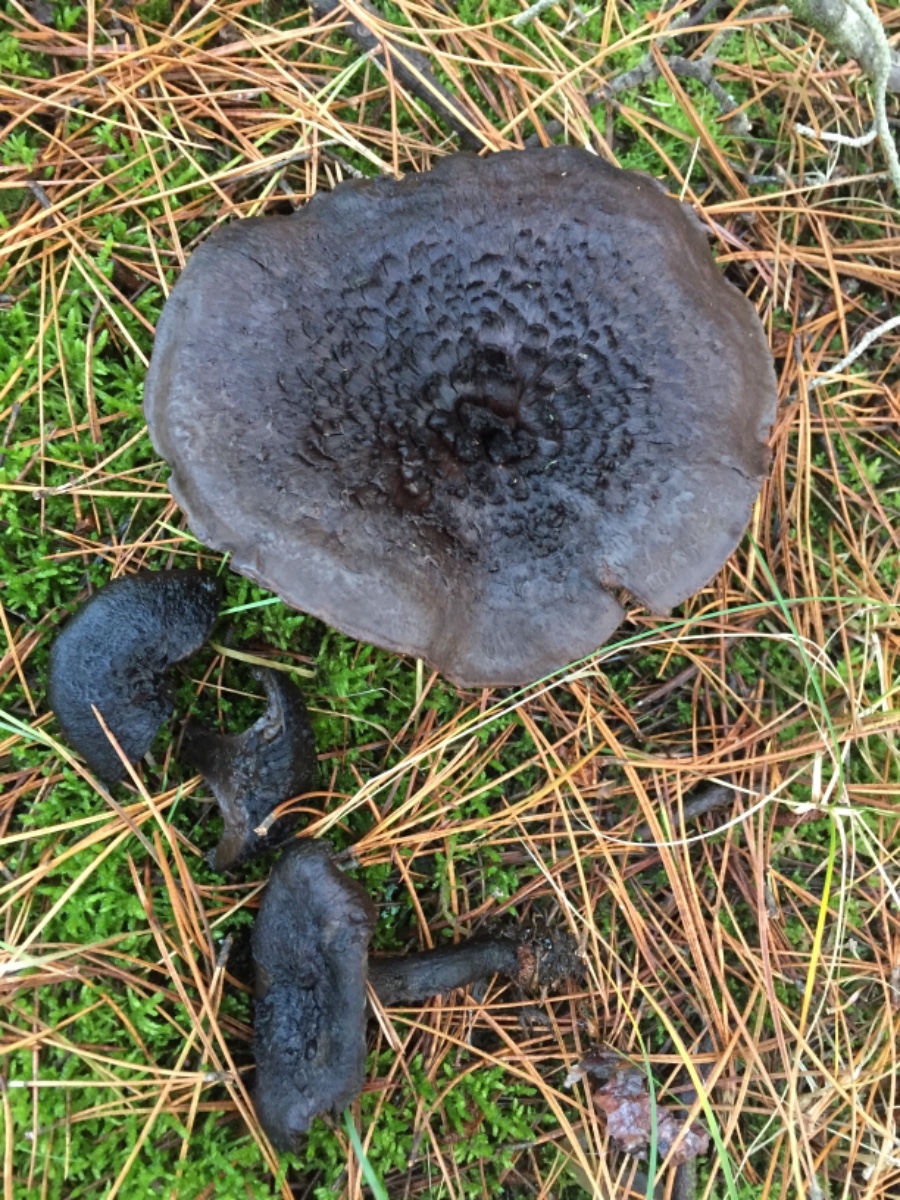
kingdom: Fungi
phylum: Basidiomycota
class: Agaricomycetes
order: Thelephorales
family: Bankeraceae
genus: Sarcodon
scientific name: Sarcodon squamosus
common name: småskællet kødpigsvamp
